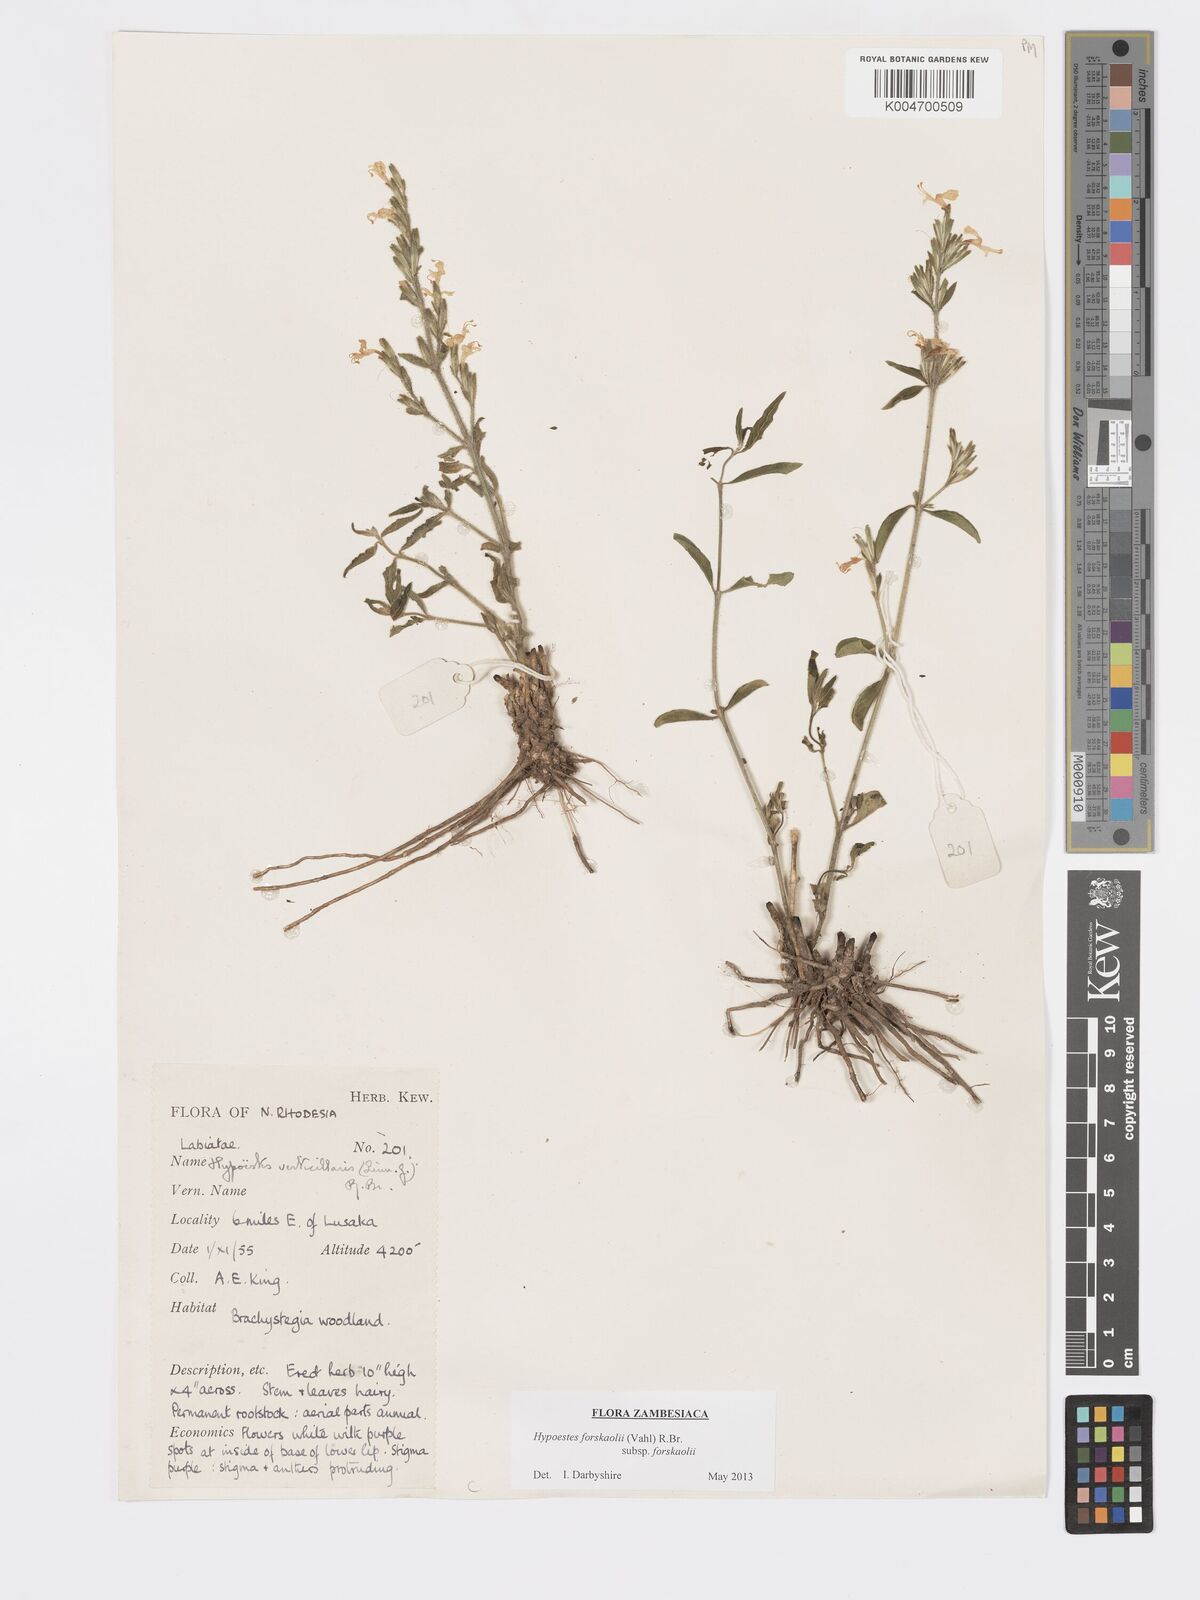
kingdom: Plantae
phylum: Tracheophyta
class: Magnoliopsida
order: Lamiales
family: Acanthaceae
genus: Hypoestes
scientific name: Hypoestes forskaolii
